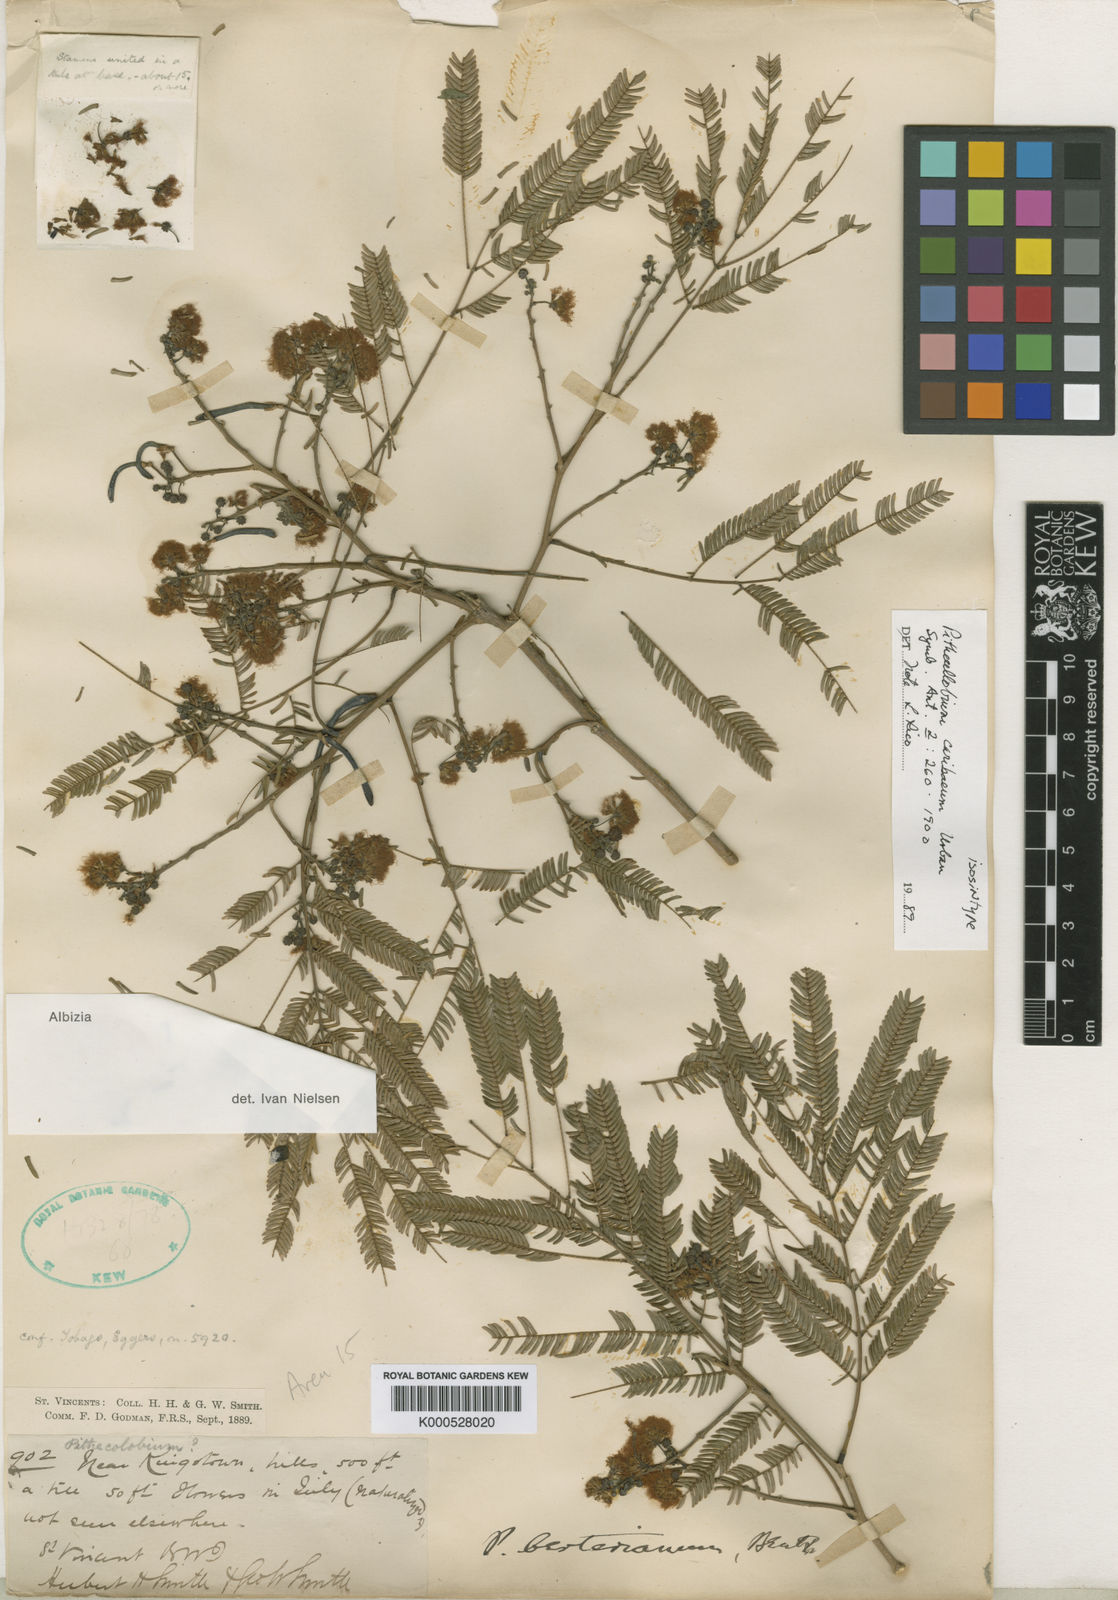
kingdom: Plantae
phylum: Tracheophyta
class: Magnoliopsida
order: Fabales
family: Fabaceae
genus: Albizia
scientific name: Albizia niopoides
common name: Silk tree
